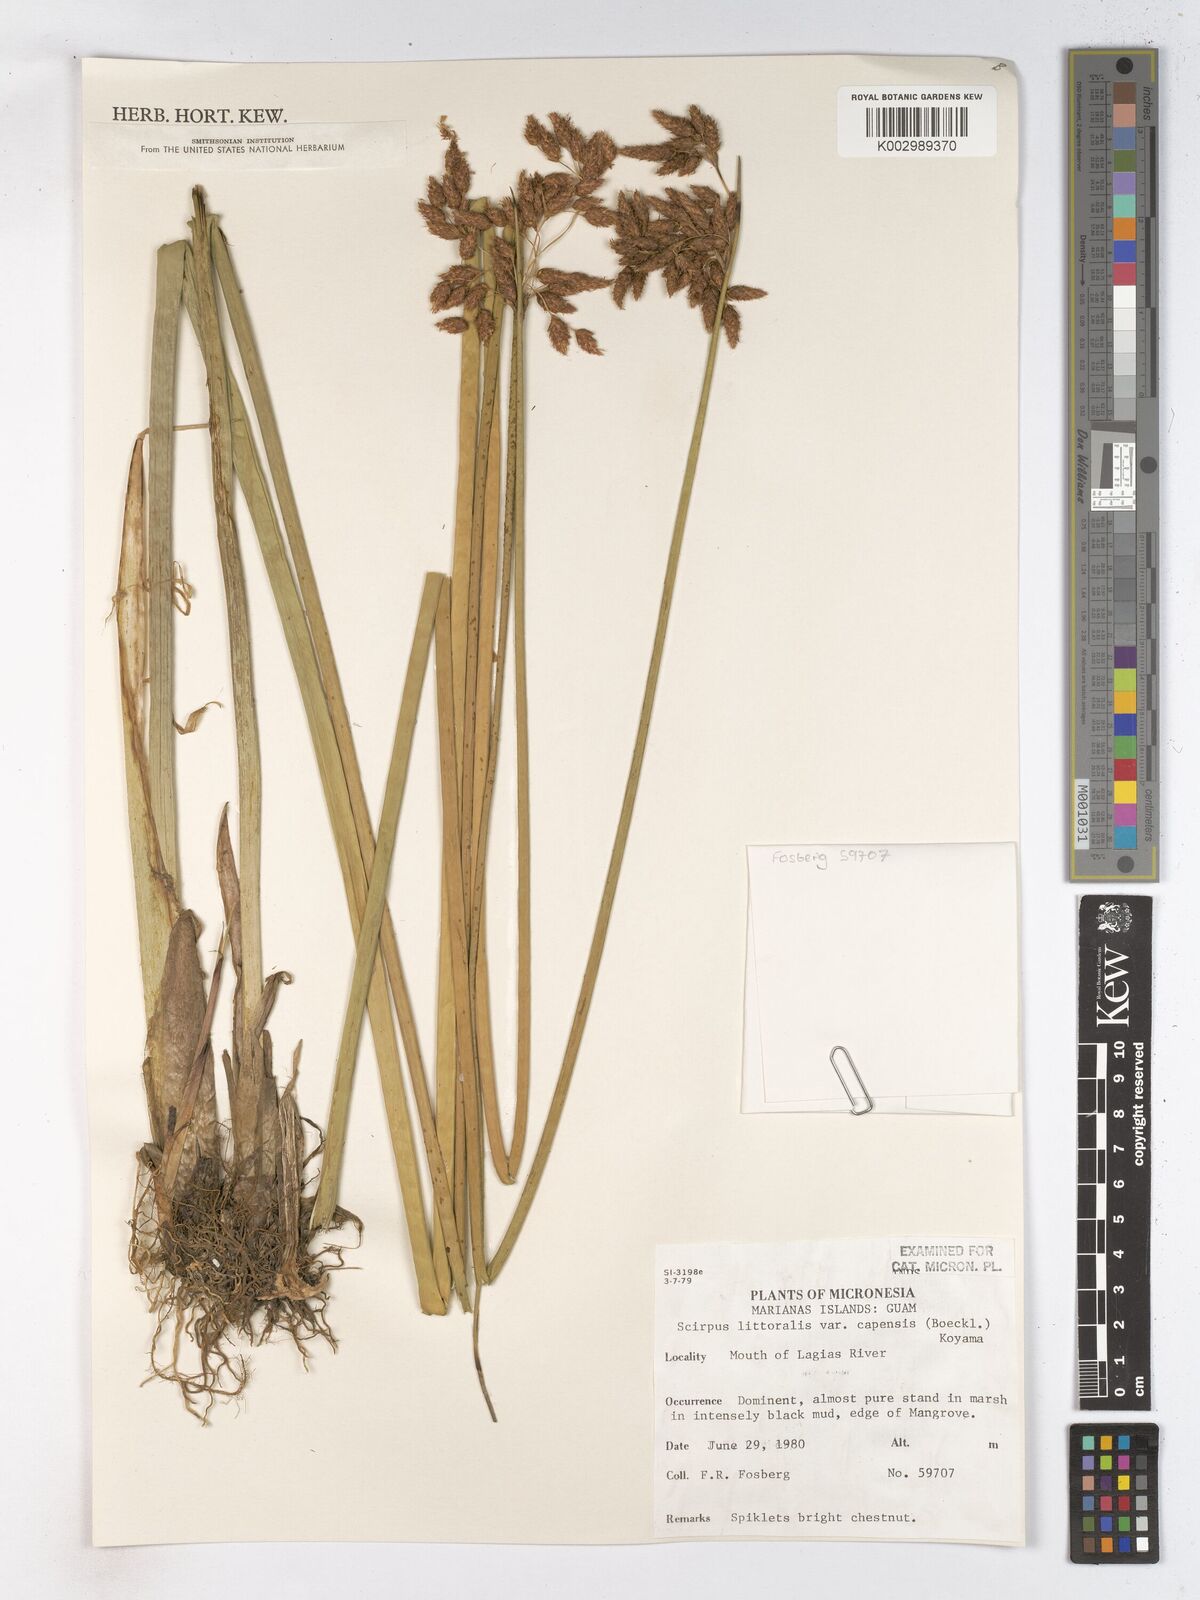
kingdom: Plantae
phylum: Tracheophyta
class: Liliopsida
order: Poales
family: Cyperaceae
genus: Schoenoplectus
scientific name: Schoenoplectus litoralis
